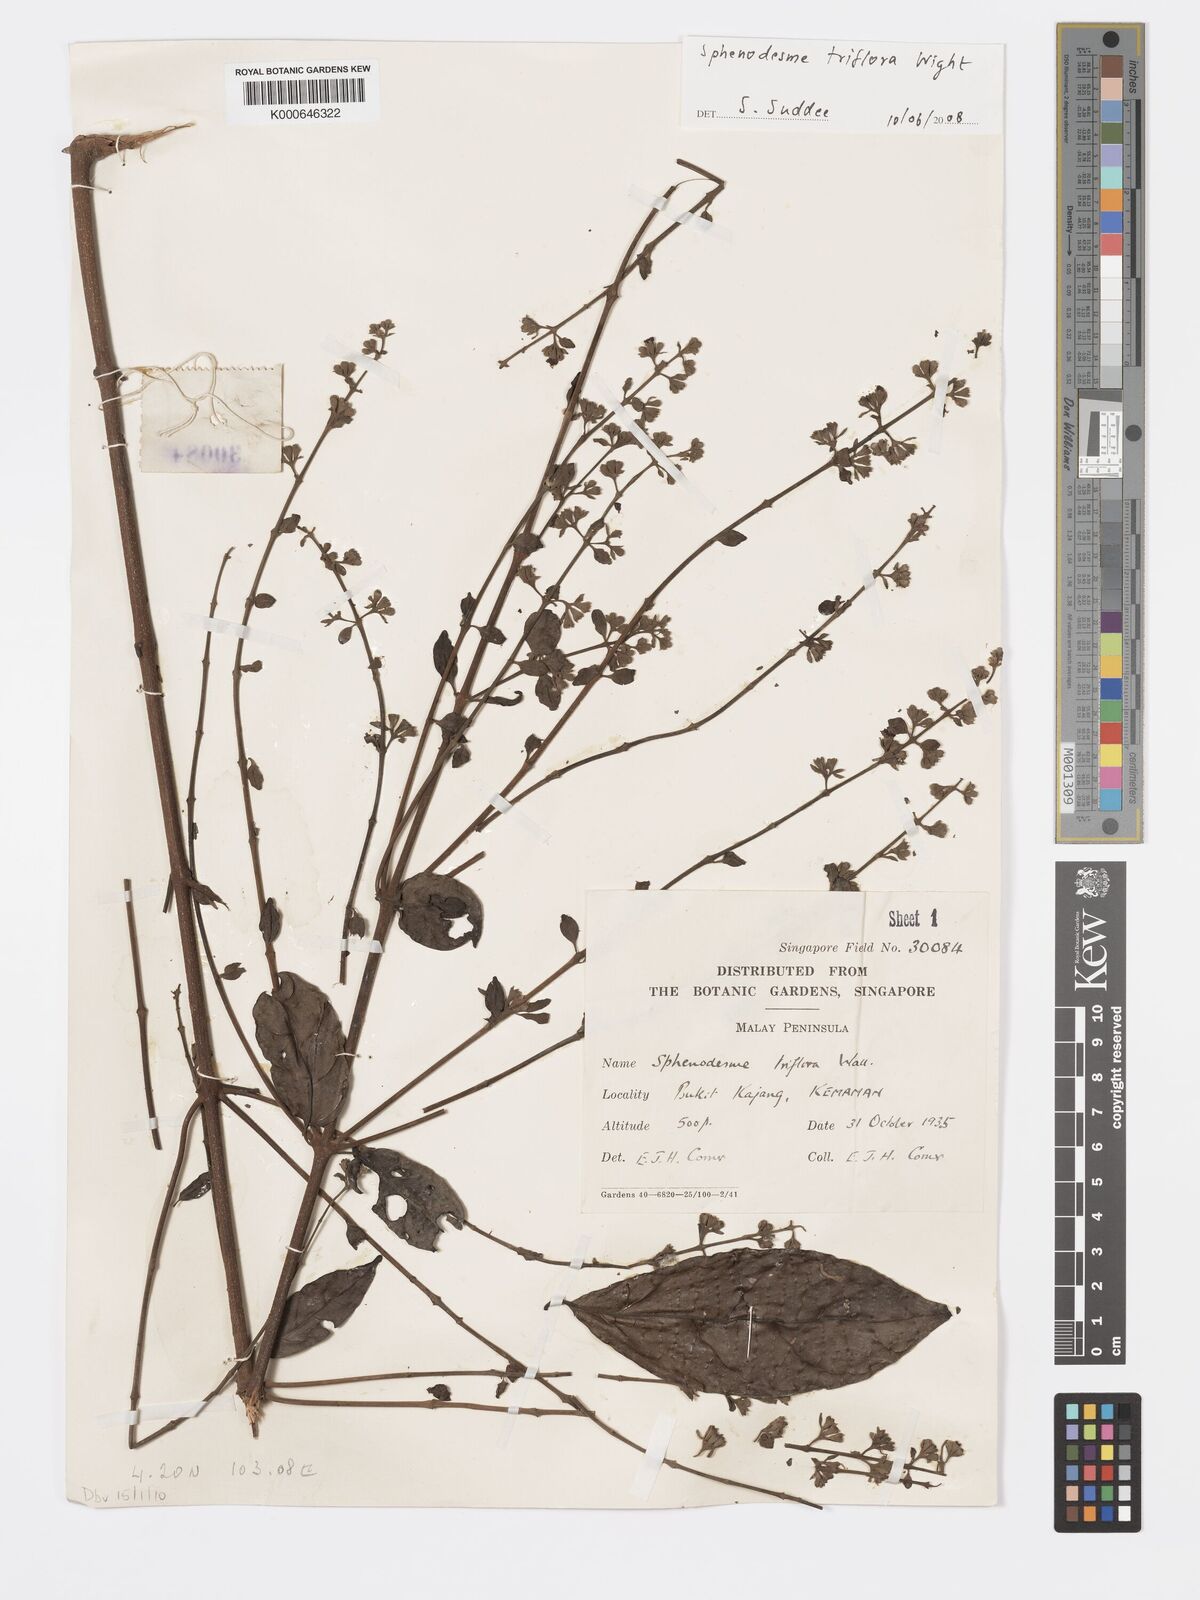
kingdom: Plantae
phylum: Tracheophyta
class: Magnoliopsida
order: Lamiales
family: Lamiaceae
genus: Sphenodesme
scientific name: Sphenodesme
